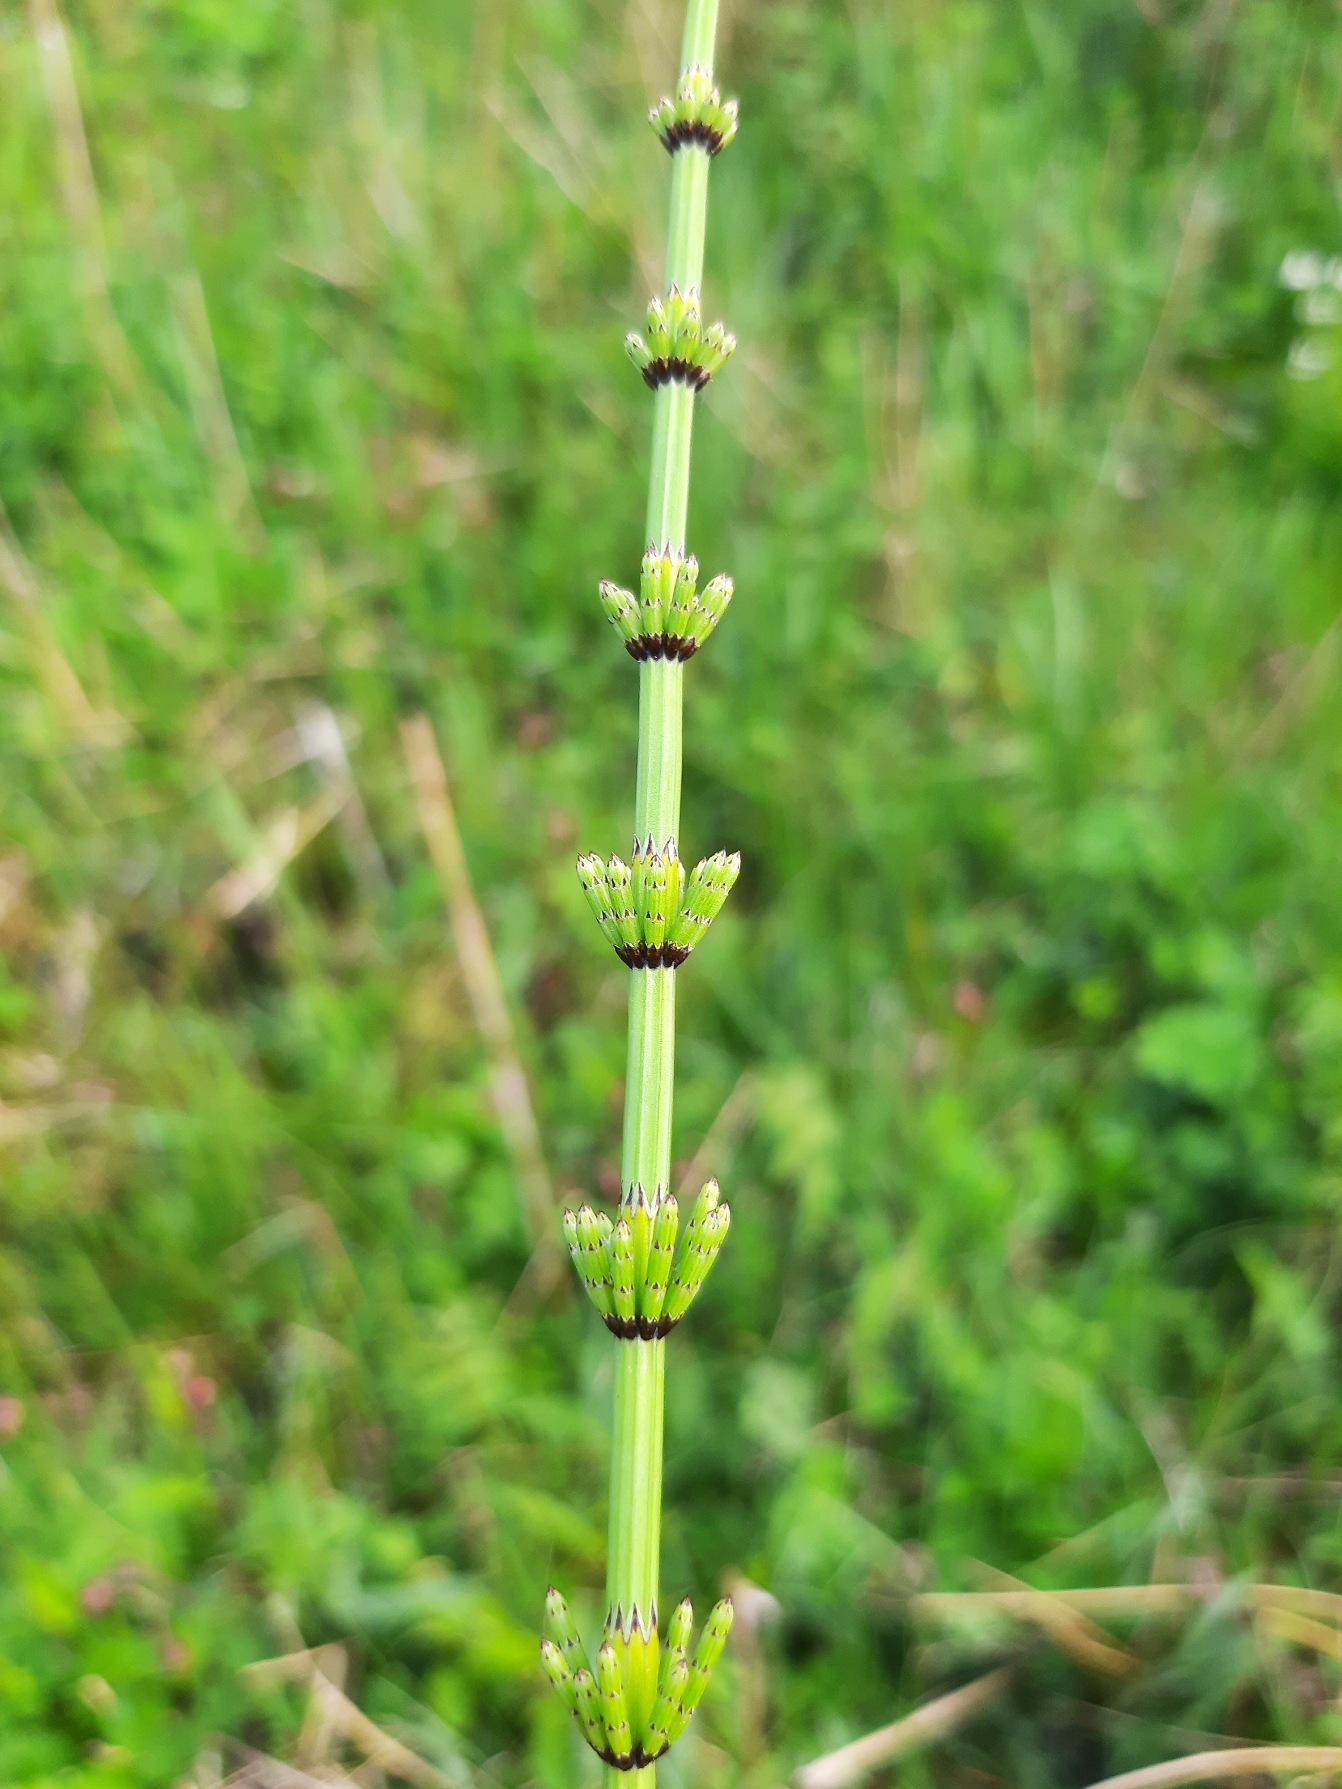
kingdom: Plantae
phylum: Tracheophyta
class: Polypodiopsida
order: Equisetales
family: Equisetaceae
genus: Equisetum
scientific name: Equisetum palustre
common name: Kær-padderok
